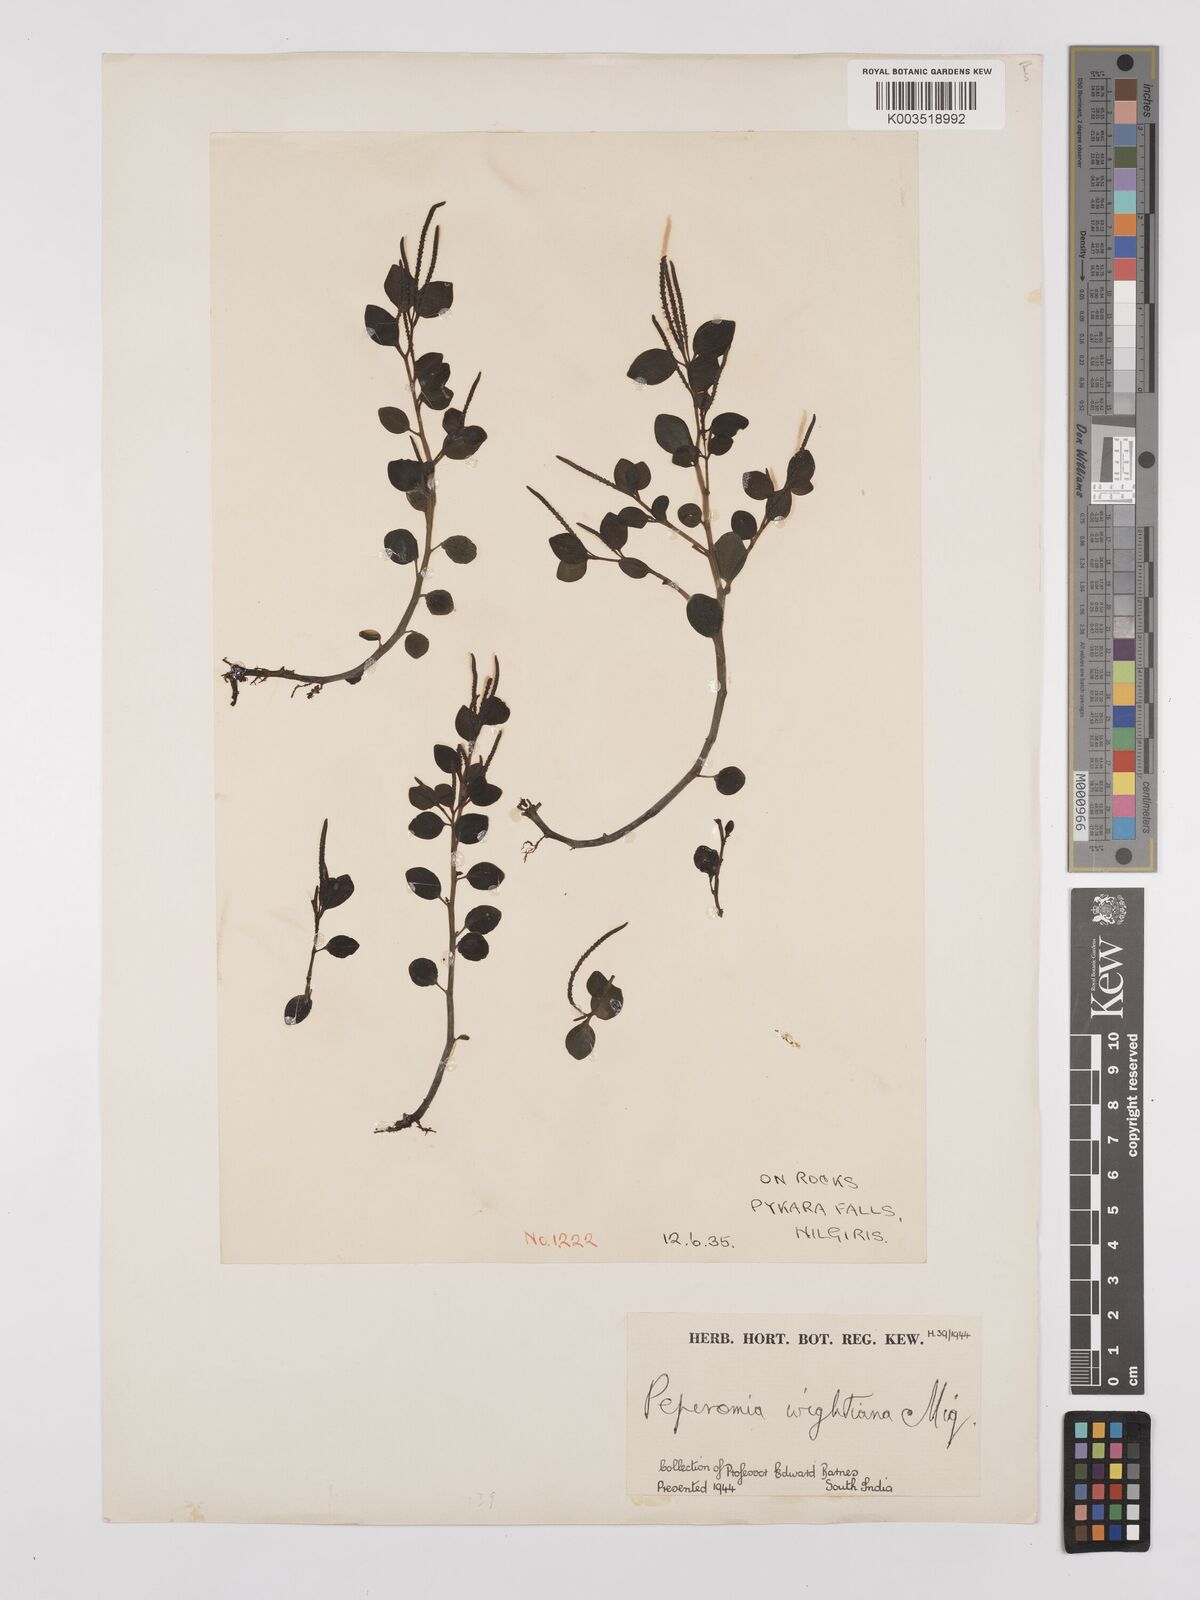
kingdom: Plantae
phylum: Tracheophyta
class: Magnoliopsida
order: Piperales
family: Piperaceae
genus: Peperomia
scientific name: Peperomia wightiana
